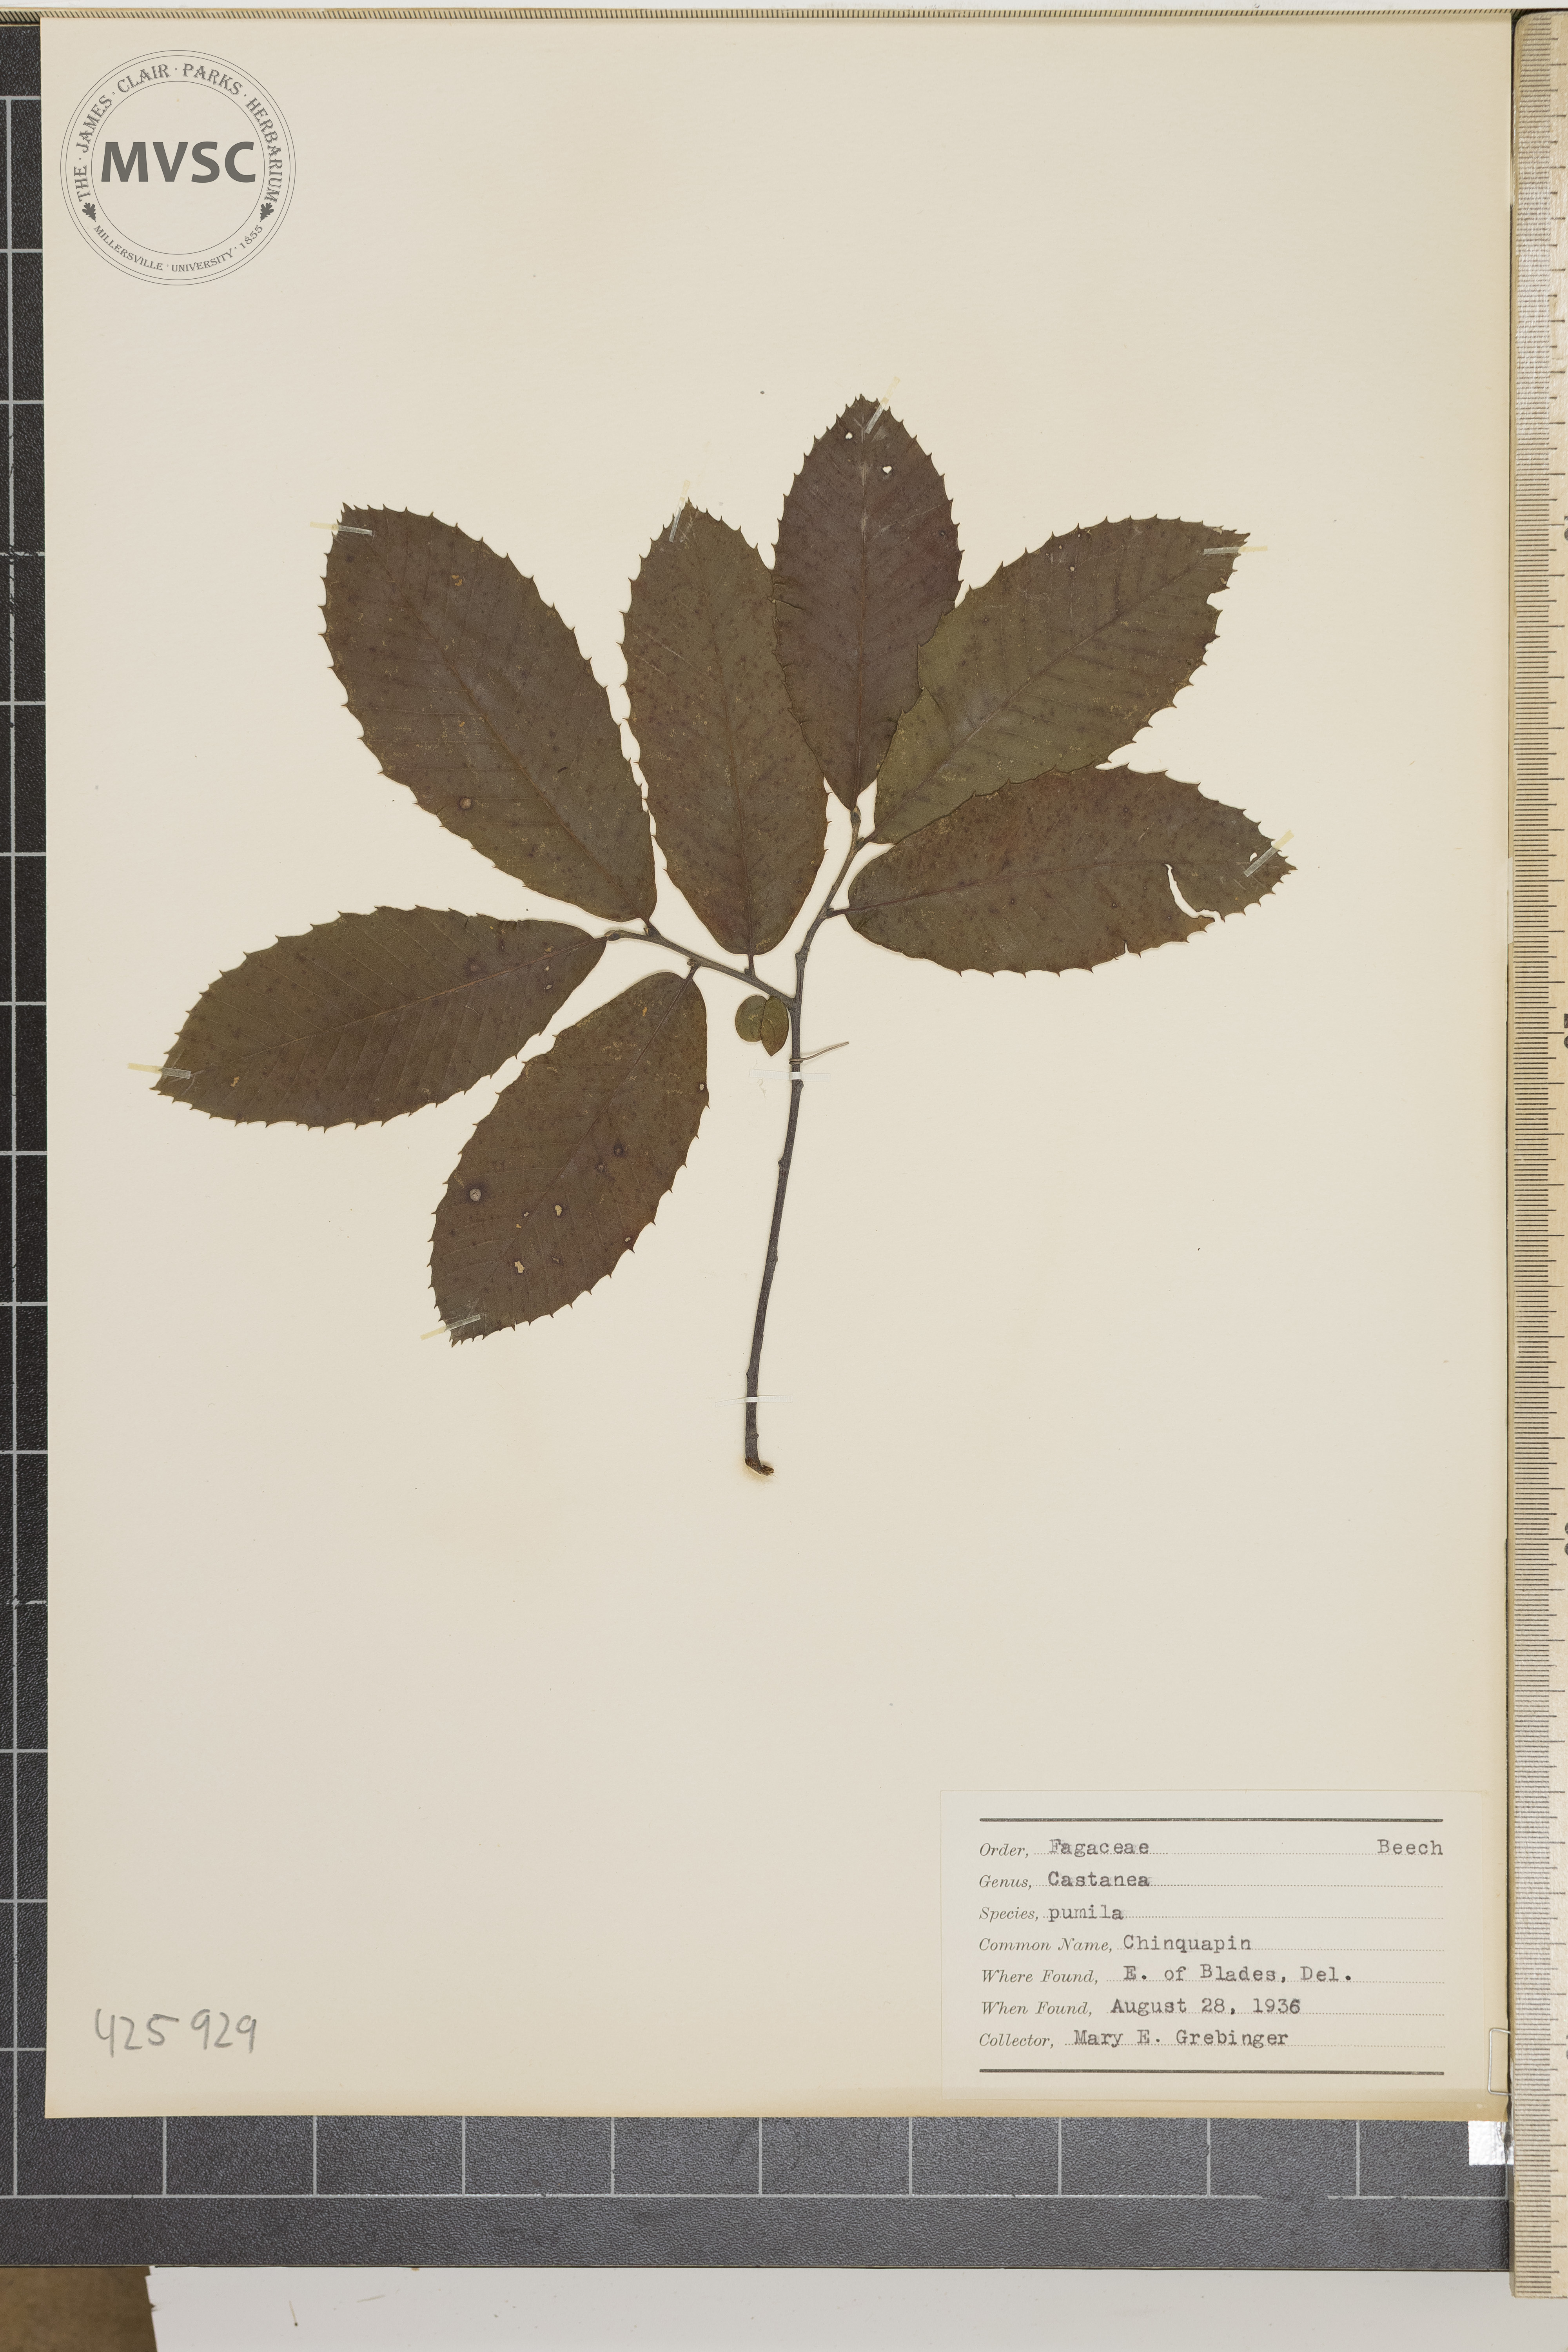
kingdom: Plantae
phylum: Tracheophyta
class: Magnoliopsida
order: Fagales
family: Fagaceae
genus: Castanea
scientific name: Castanea pumila
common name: Chinquapin
